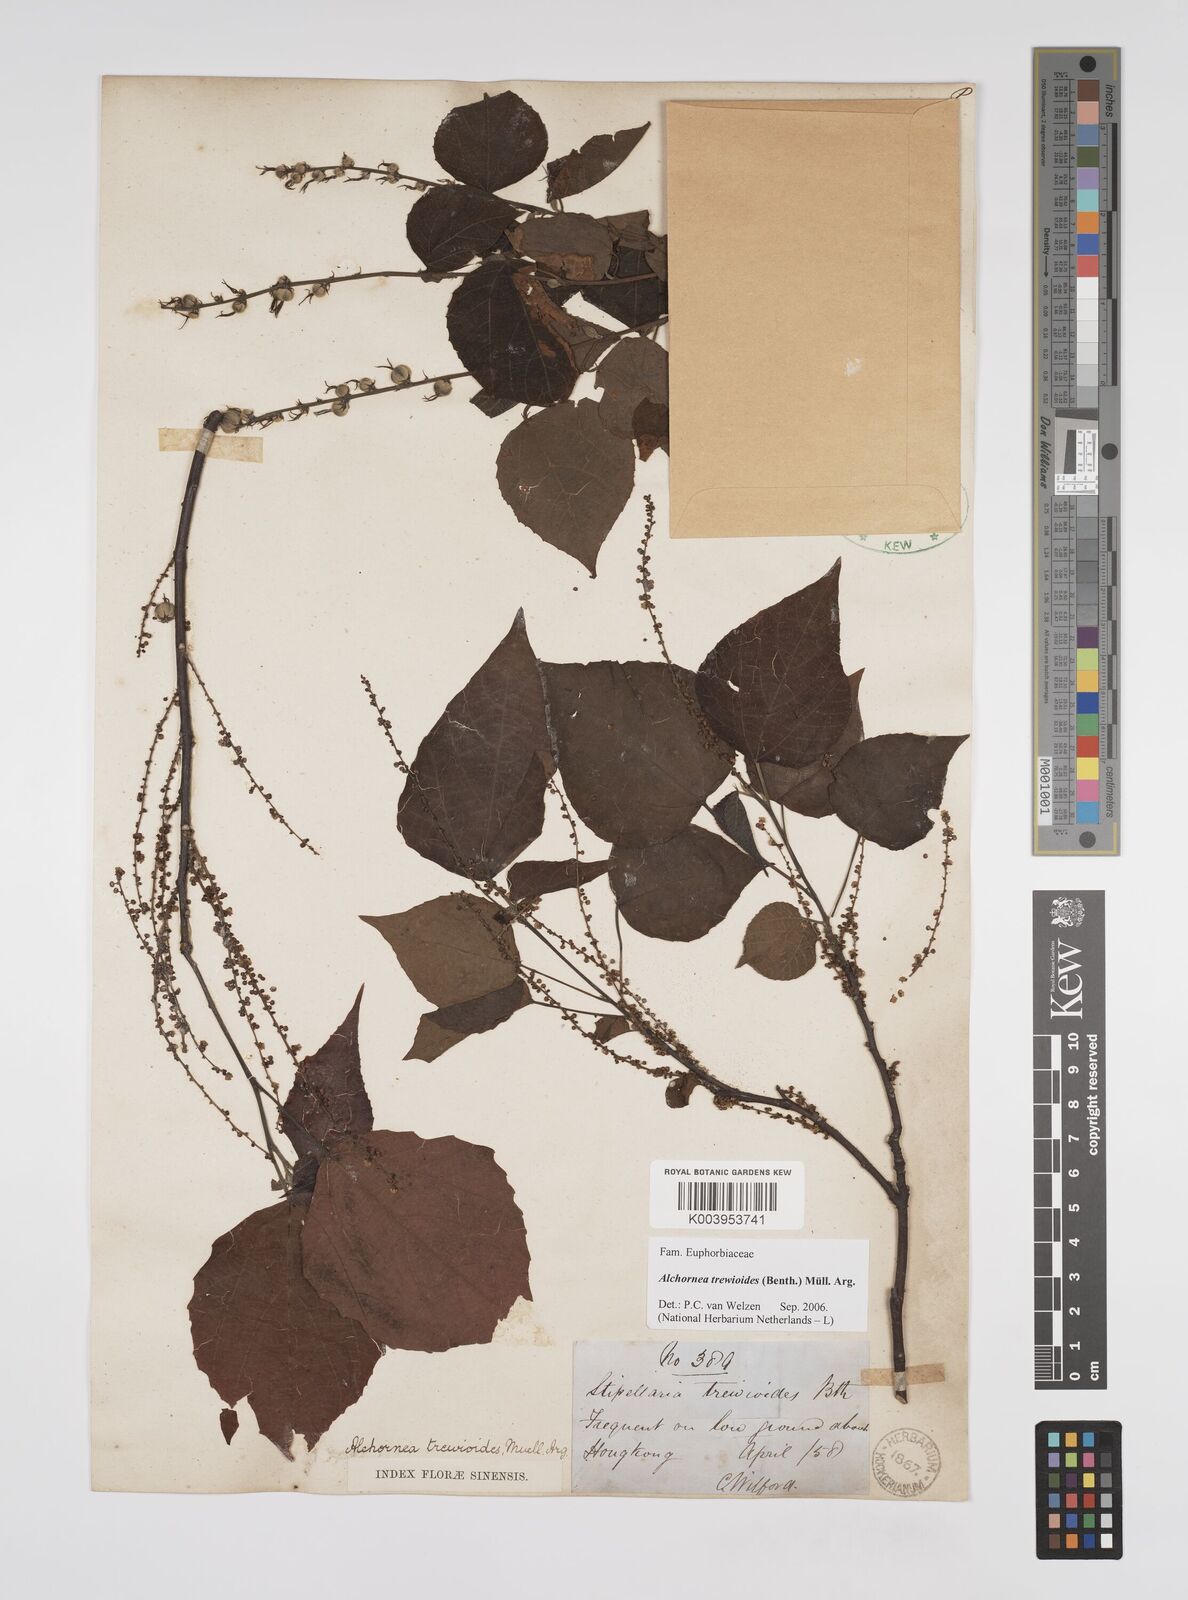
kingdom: Plantae
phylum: Tracheophyta
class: Magnoliopsida
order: Malpighiales
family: Euphorbiaceae
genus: Alchornea
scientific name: Alchornea trewioides
